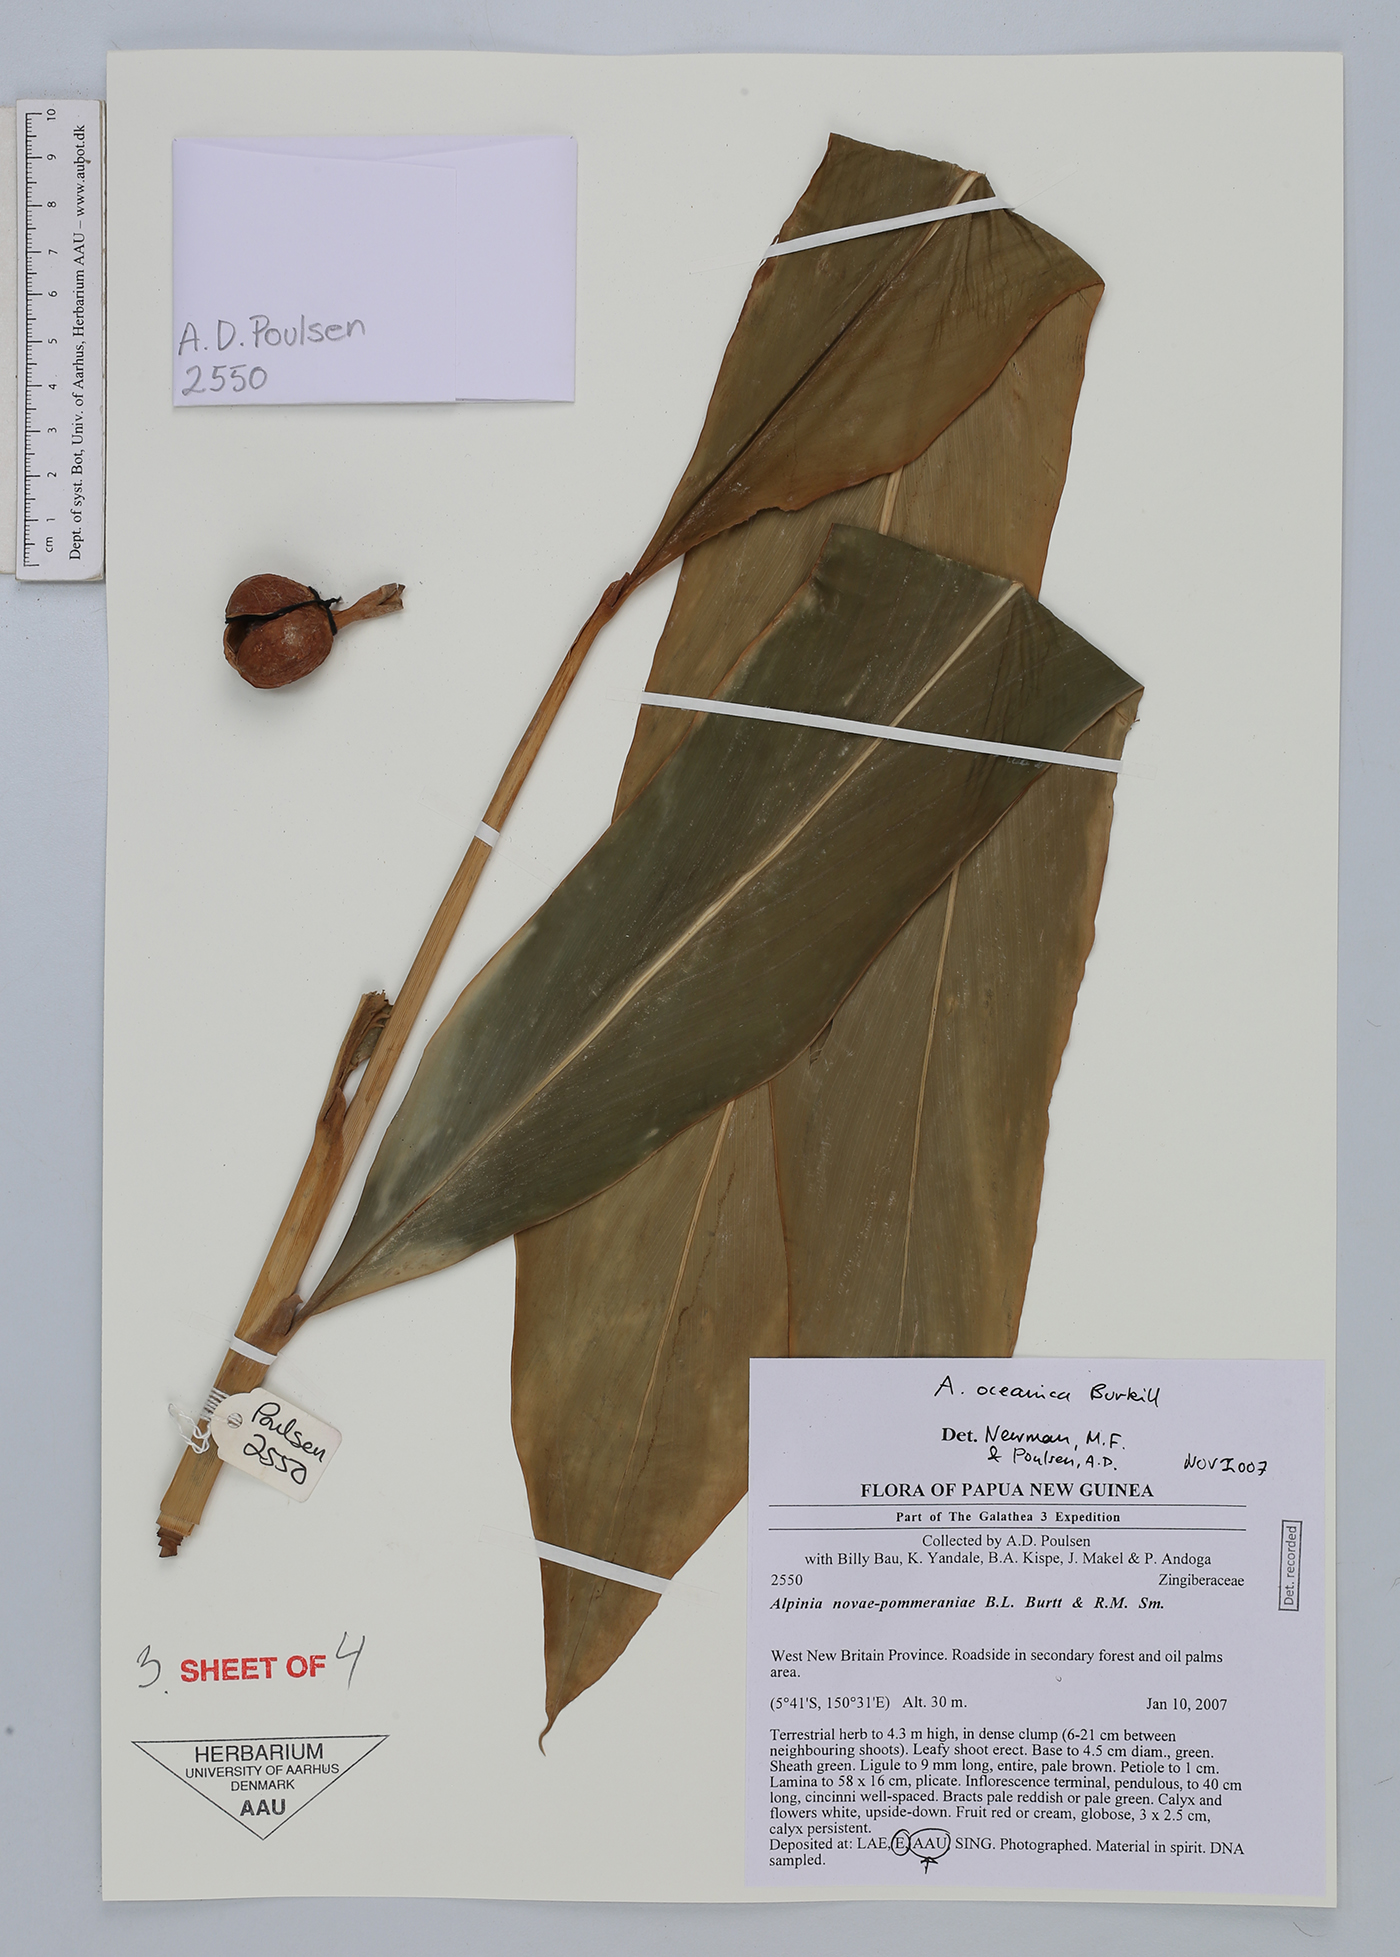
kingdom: Plantae
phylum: Tracheophyta
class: Liliopsida
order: Zingiberales
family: Zingiberaceae
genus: Alpinia
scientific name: Alpinia oceanica
